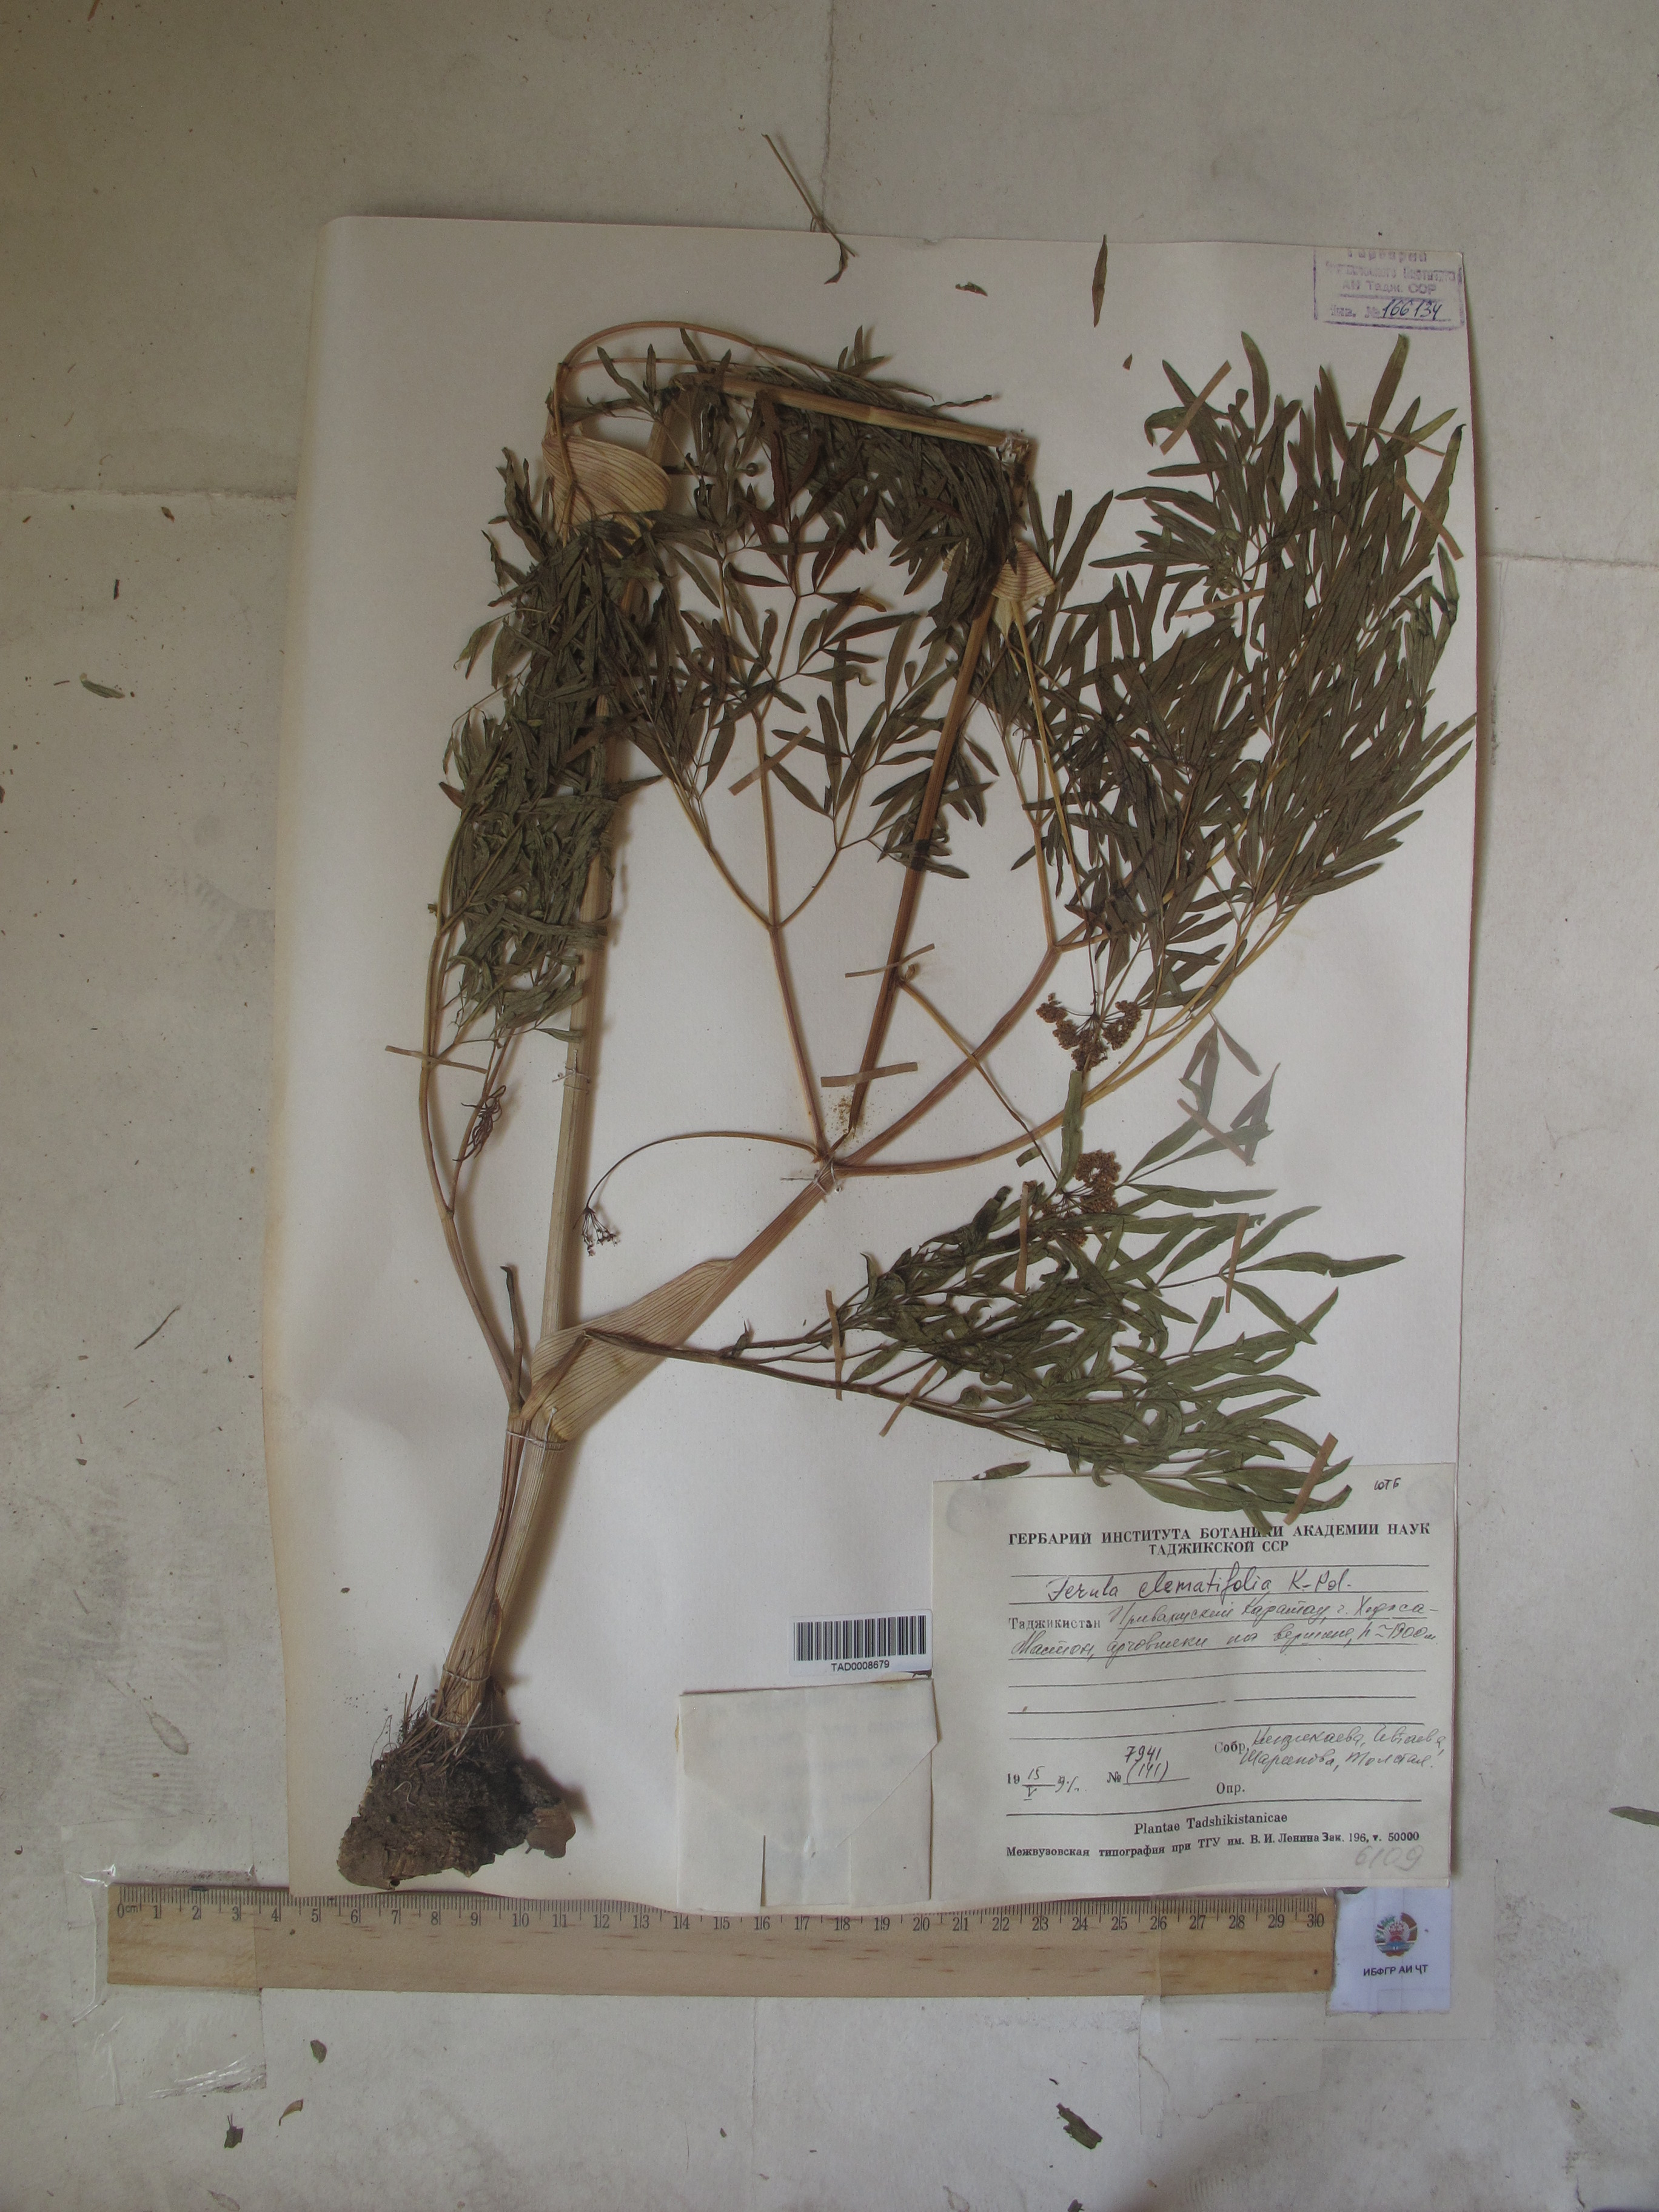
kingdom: Plantae
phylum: Tracheophyta
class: Magnoliopsida
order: Apiales
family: Apiaceae
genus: Ferula
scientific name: Ferula clematidifolia
